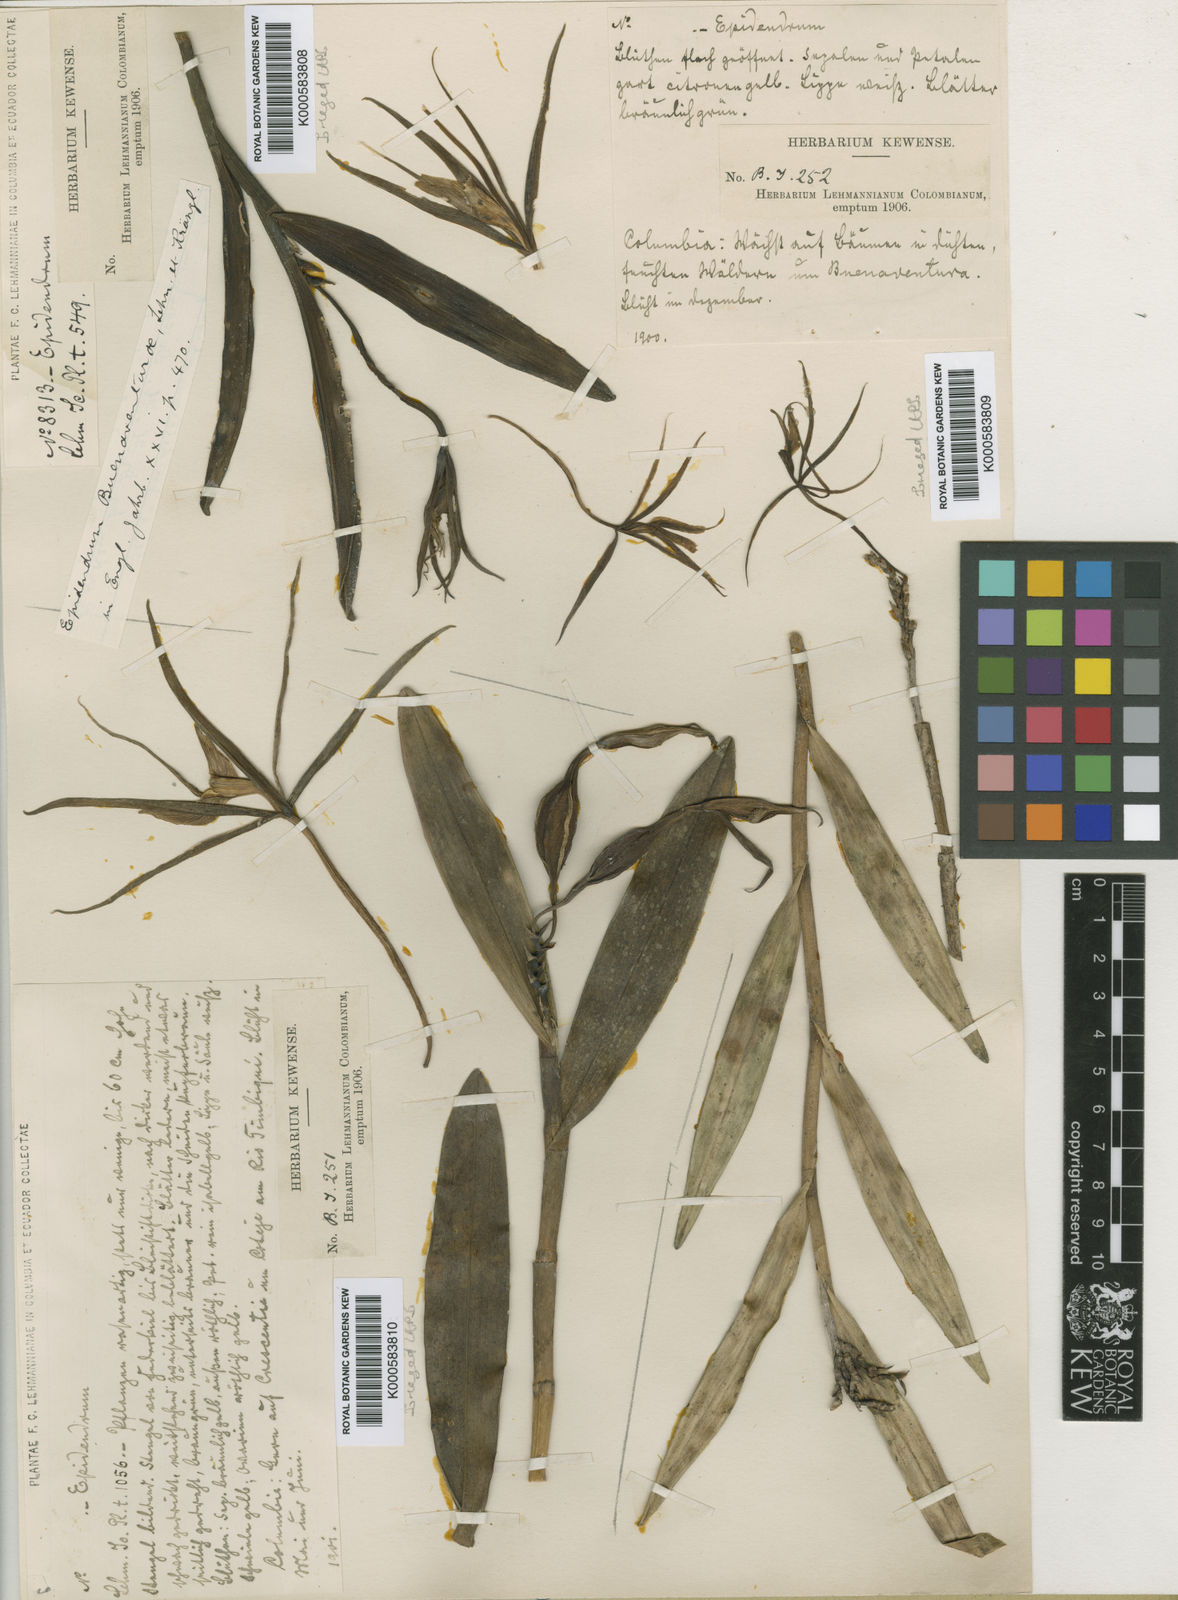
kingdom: Plantae
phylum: Tracheophyta
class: Liliopsida
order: Asparagales
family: Orchidaceae
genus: Epidendrum
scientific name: Epidendrum buenaventurae
